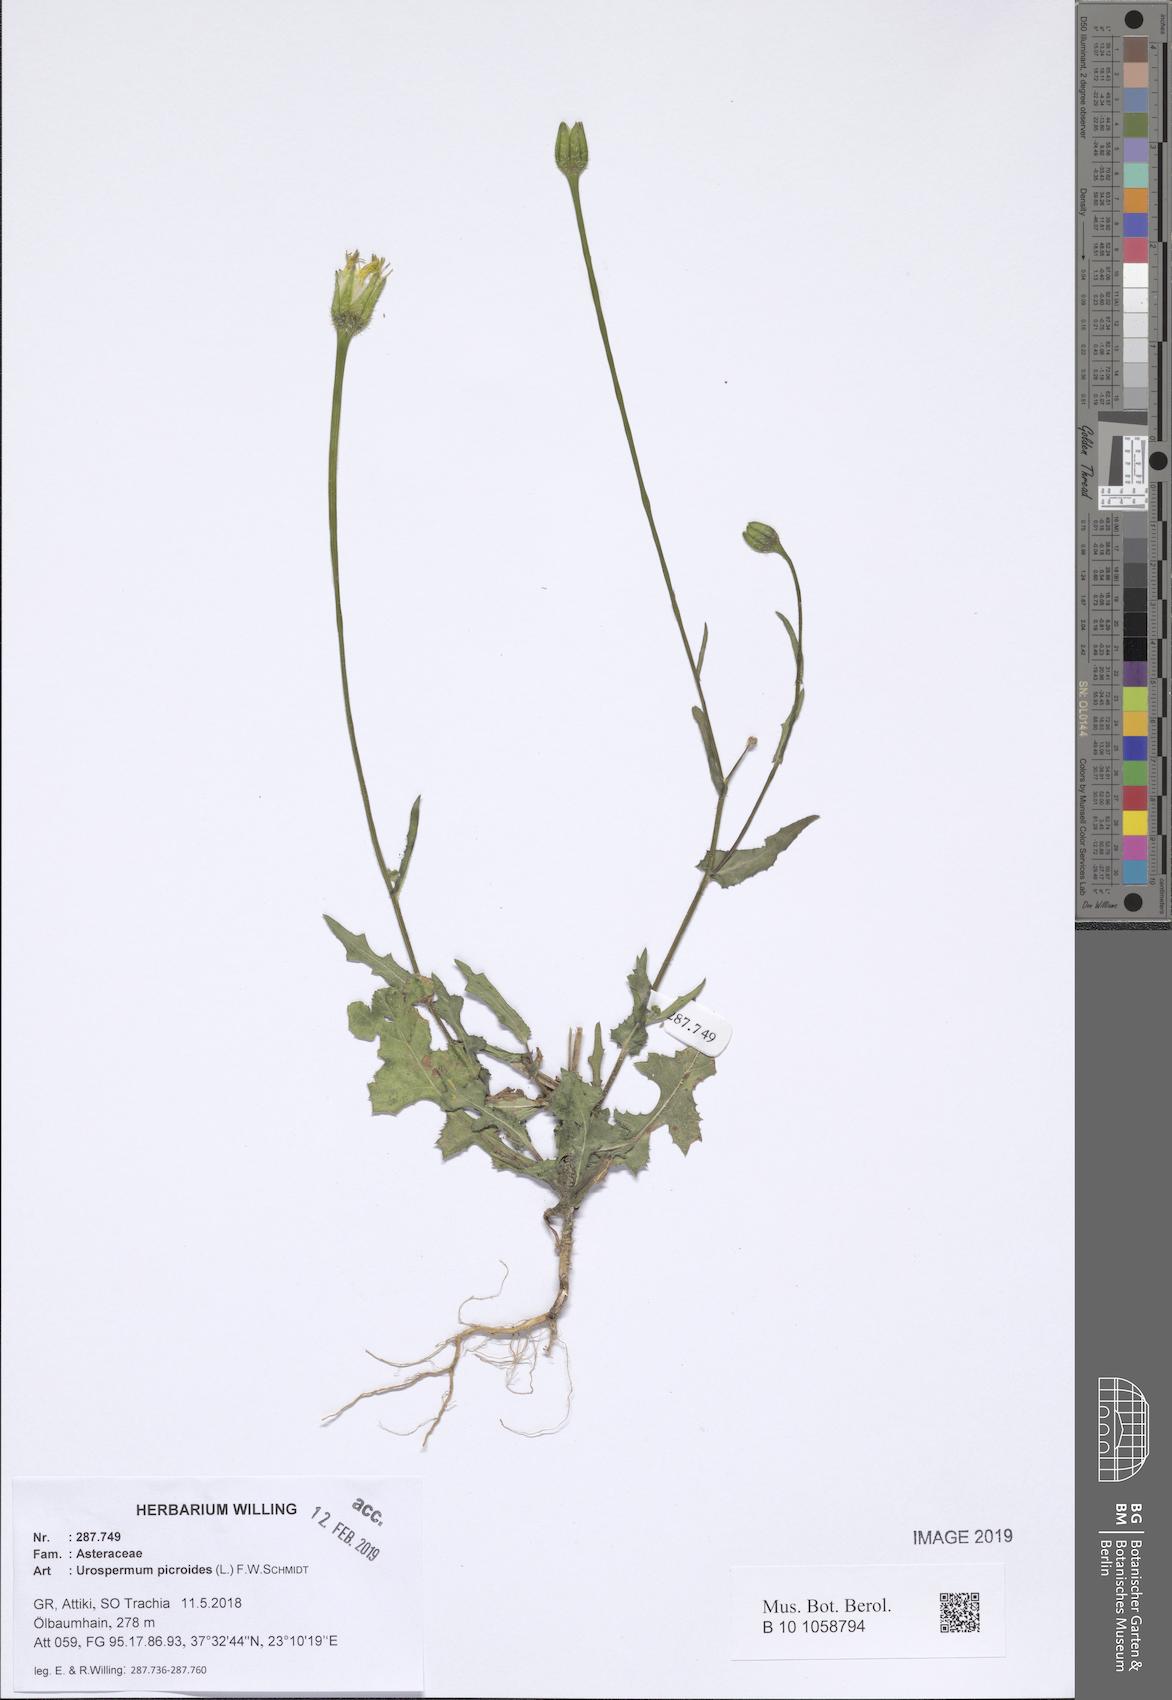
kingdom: Plantae
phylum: Tracheophyta
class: Magnoliopsida
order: Asterales
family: Asteraceae
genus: Urospermum
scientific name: Urospermum picroides
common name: False hawkbit
